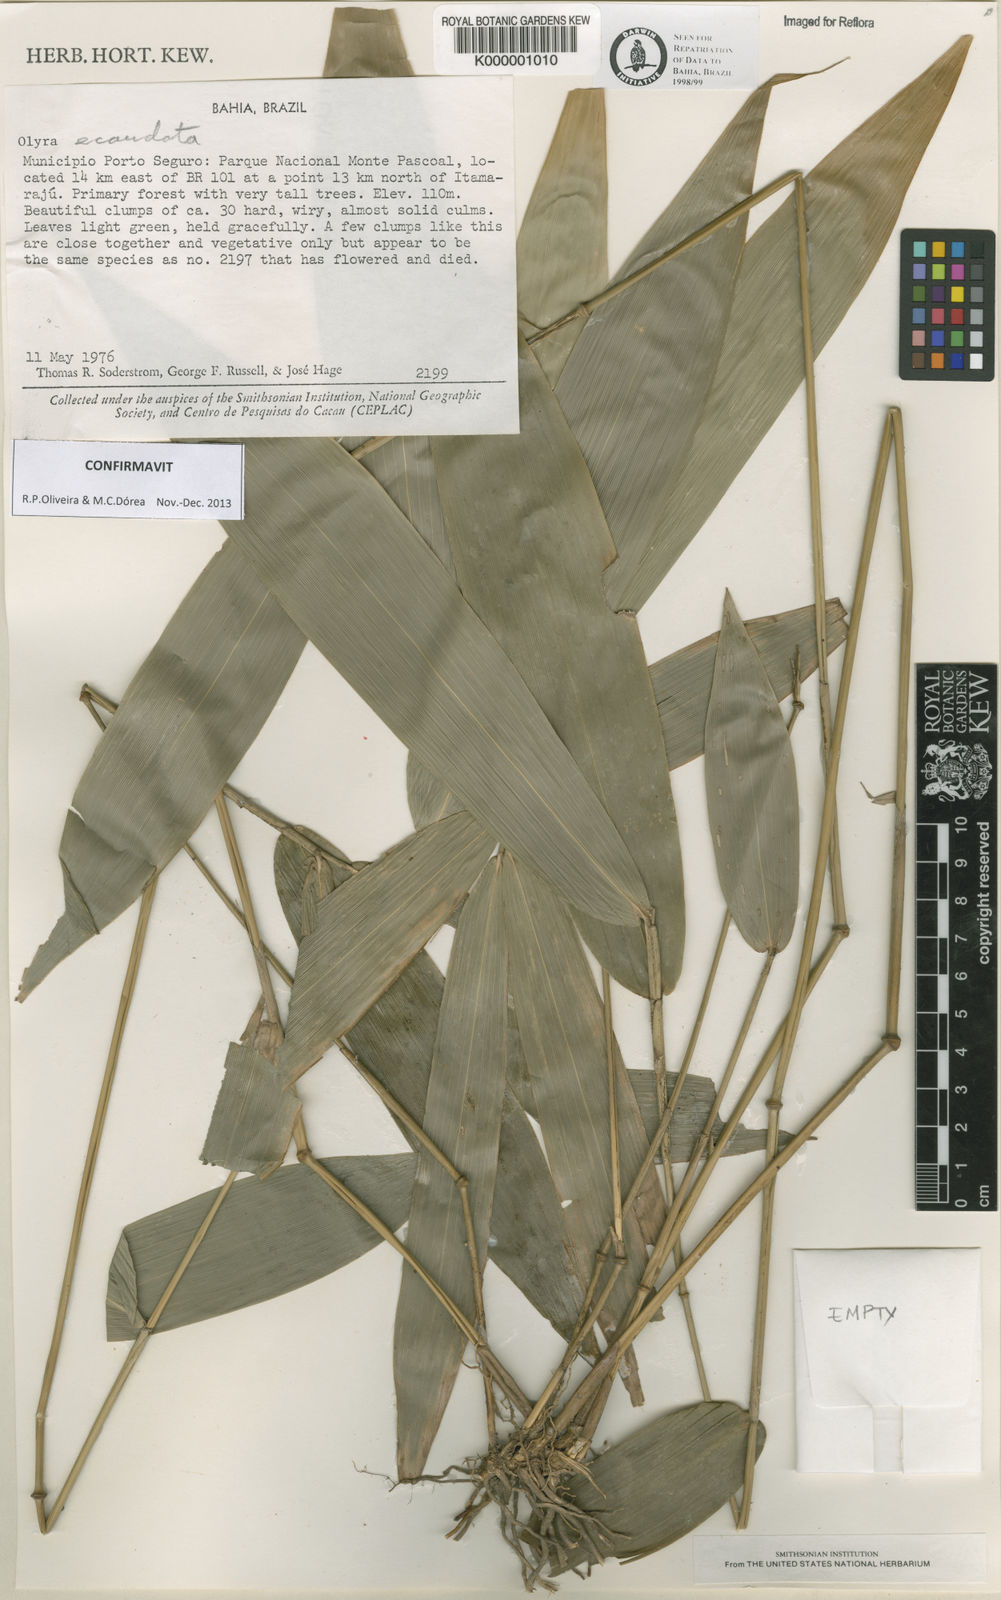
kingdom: Plantae
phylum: Tracheophyta
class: Liliopsida
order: Poales
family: Poaceae
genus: Olyra
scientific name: Olyra
